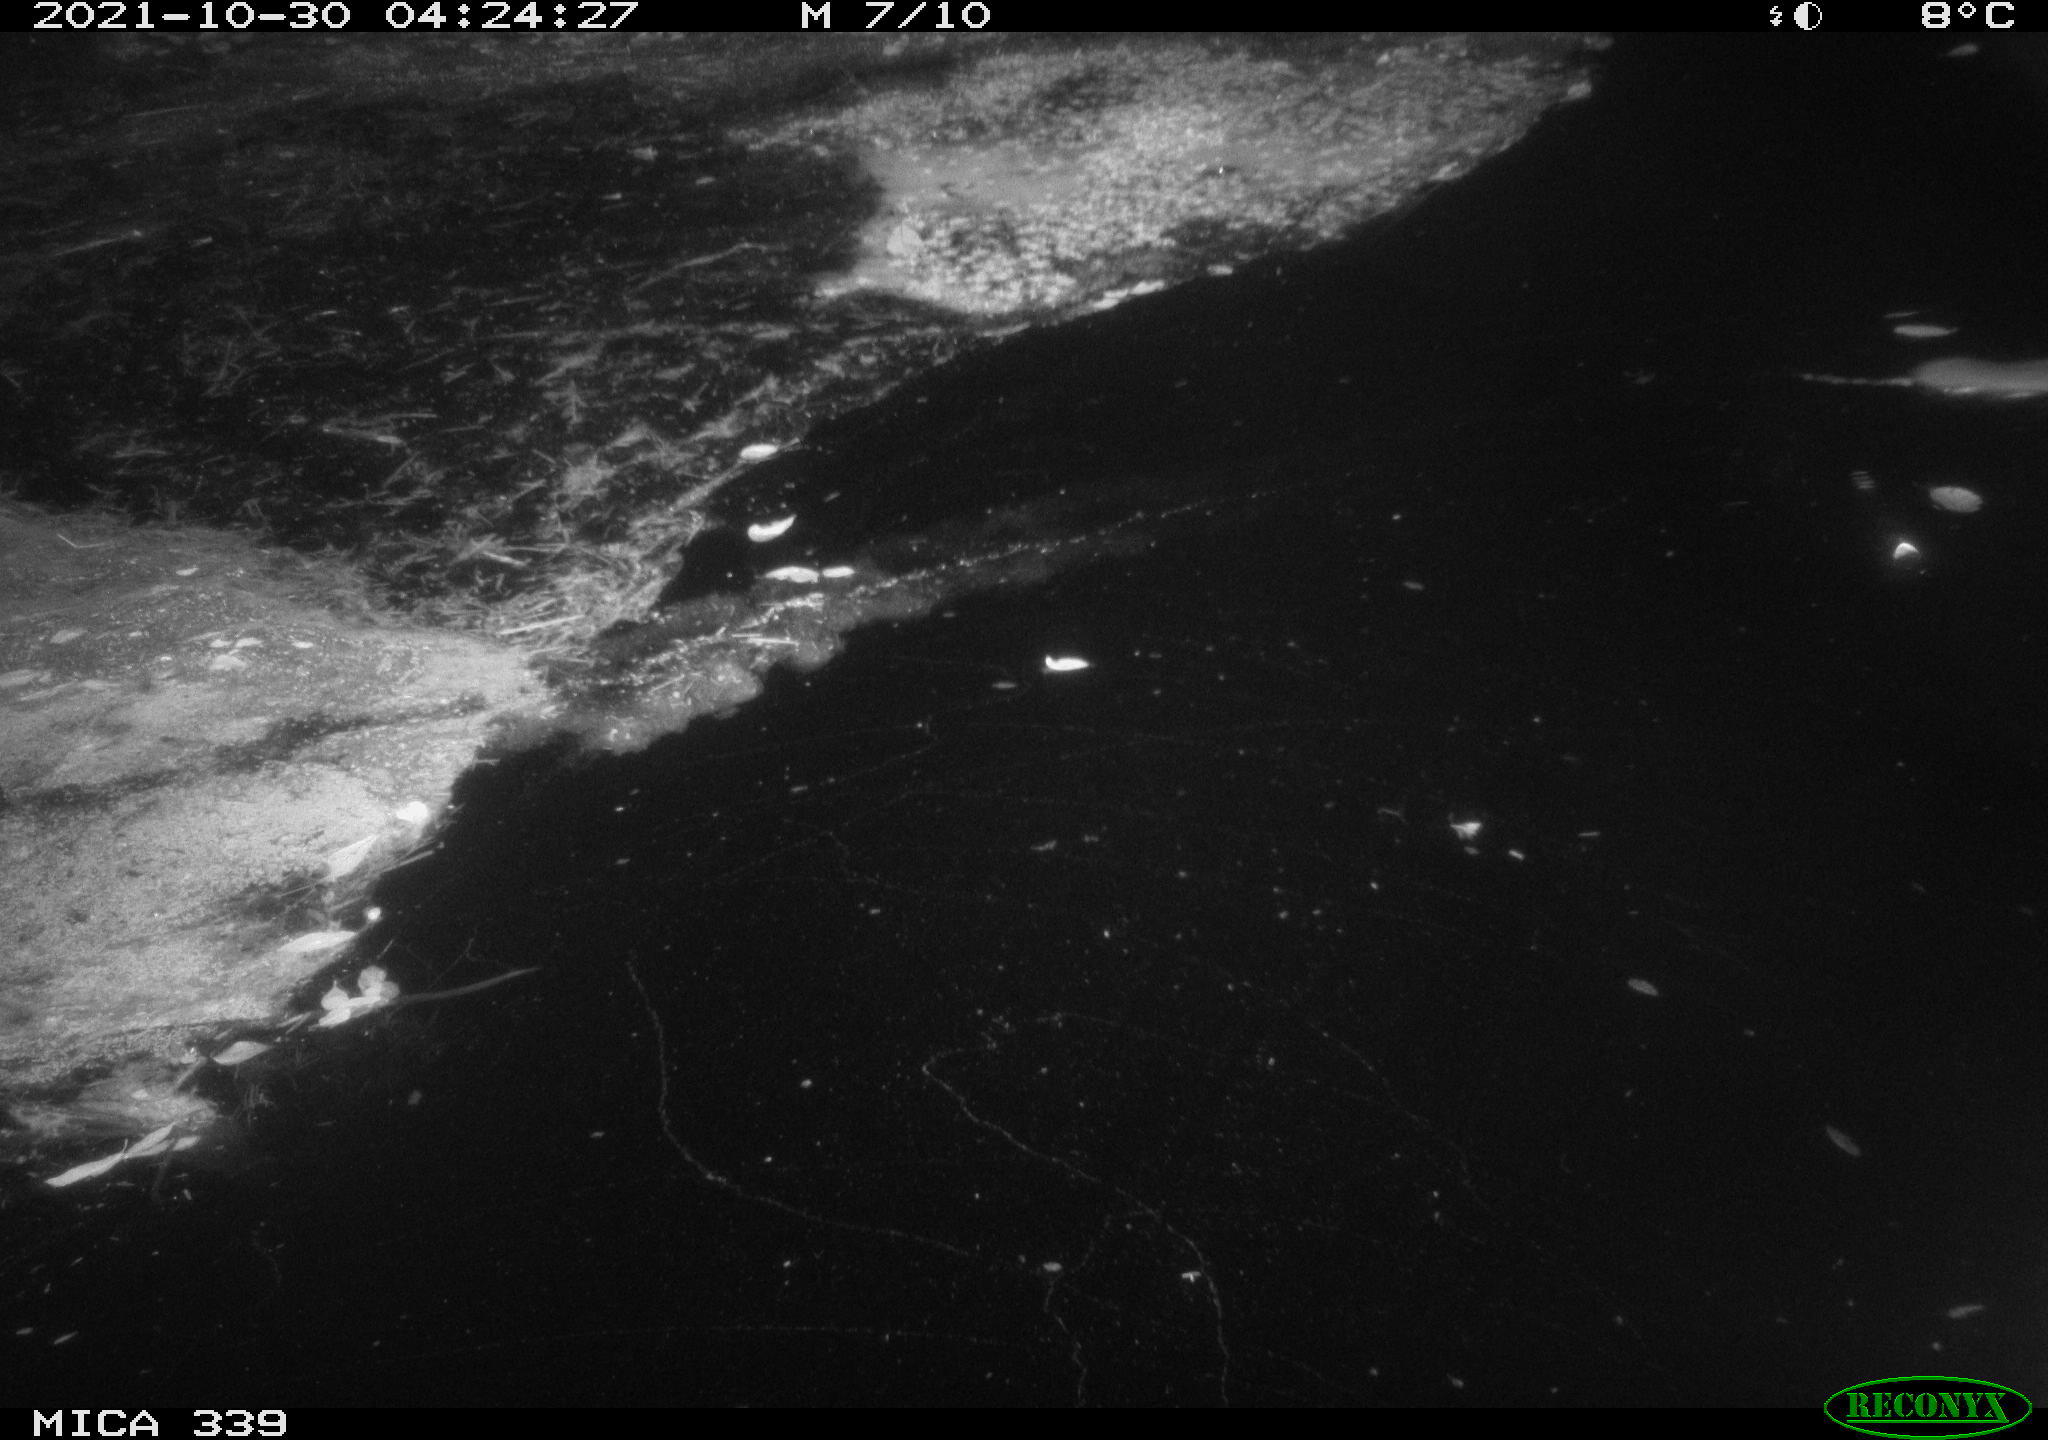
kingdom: Animalia
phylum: Chordata
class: Mammalia
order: Rodentia
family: Muridae
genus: Rattus
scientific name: Rattus norvegicus
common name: Brown rat
